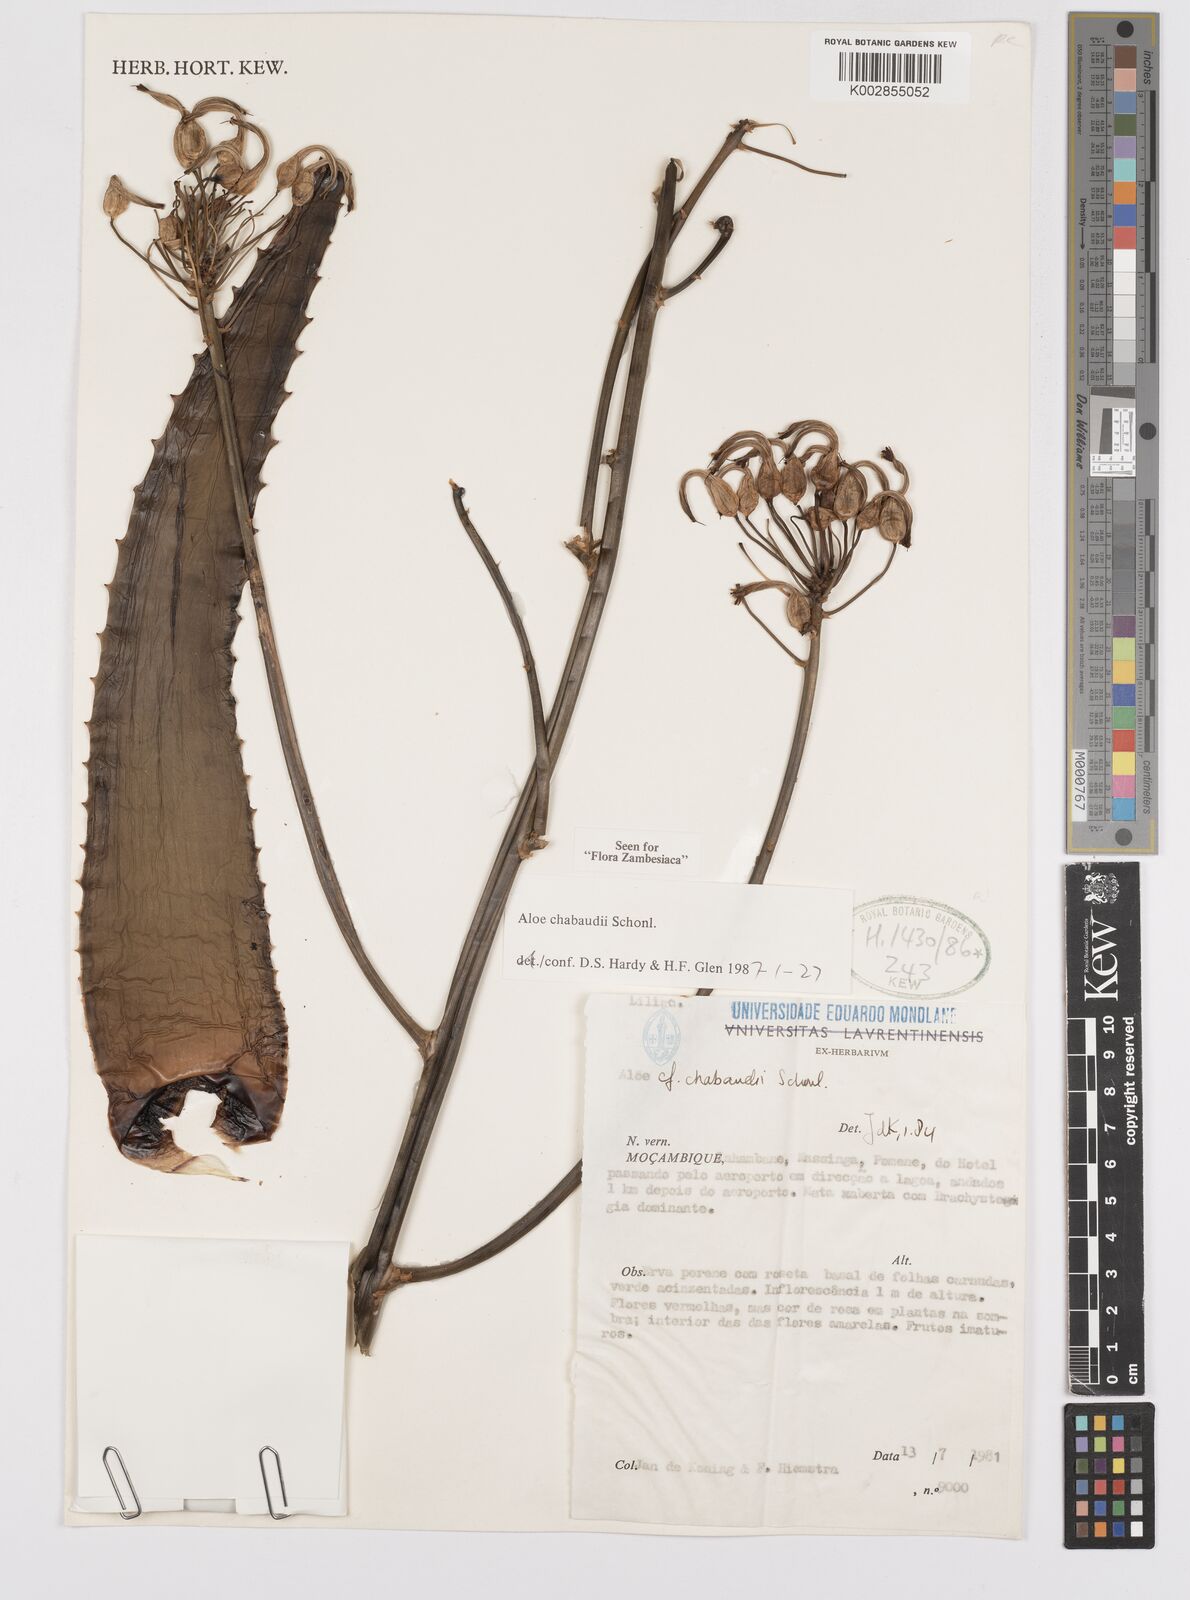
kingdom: Plantae
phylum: Tracheophyta
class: Liliopsida
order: Asparagales
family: Asphodelaceae
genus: Aloe
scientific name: Aloe chabaudii
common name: Chabaud's aloe
